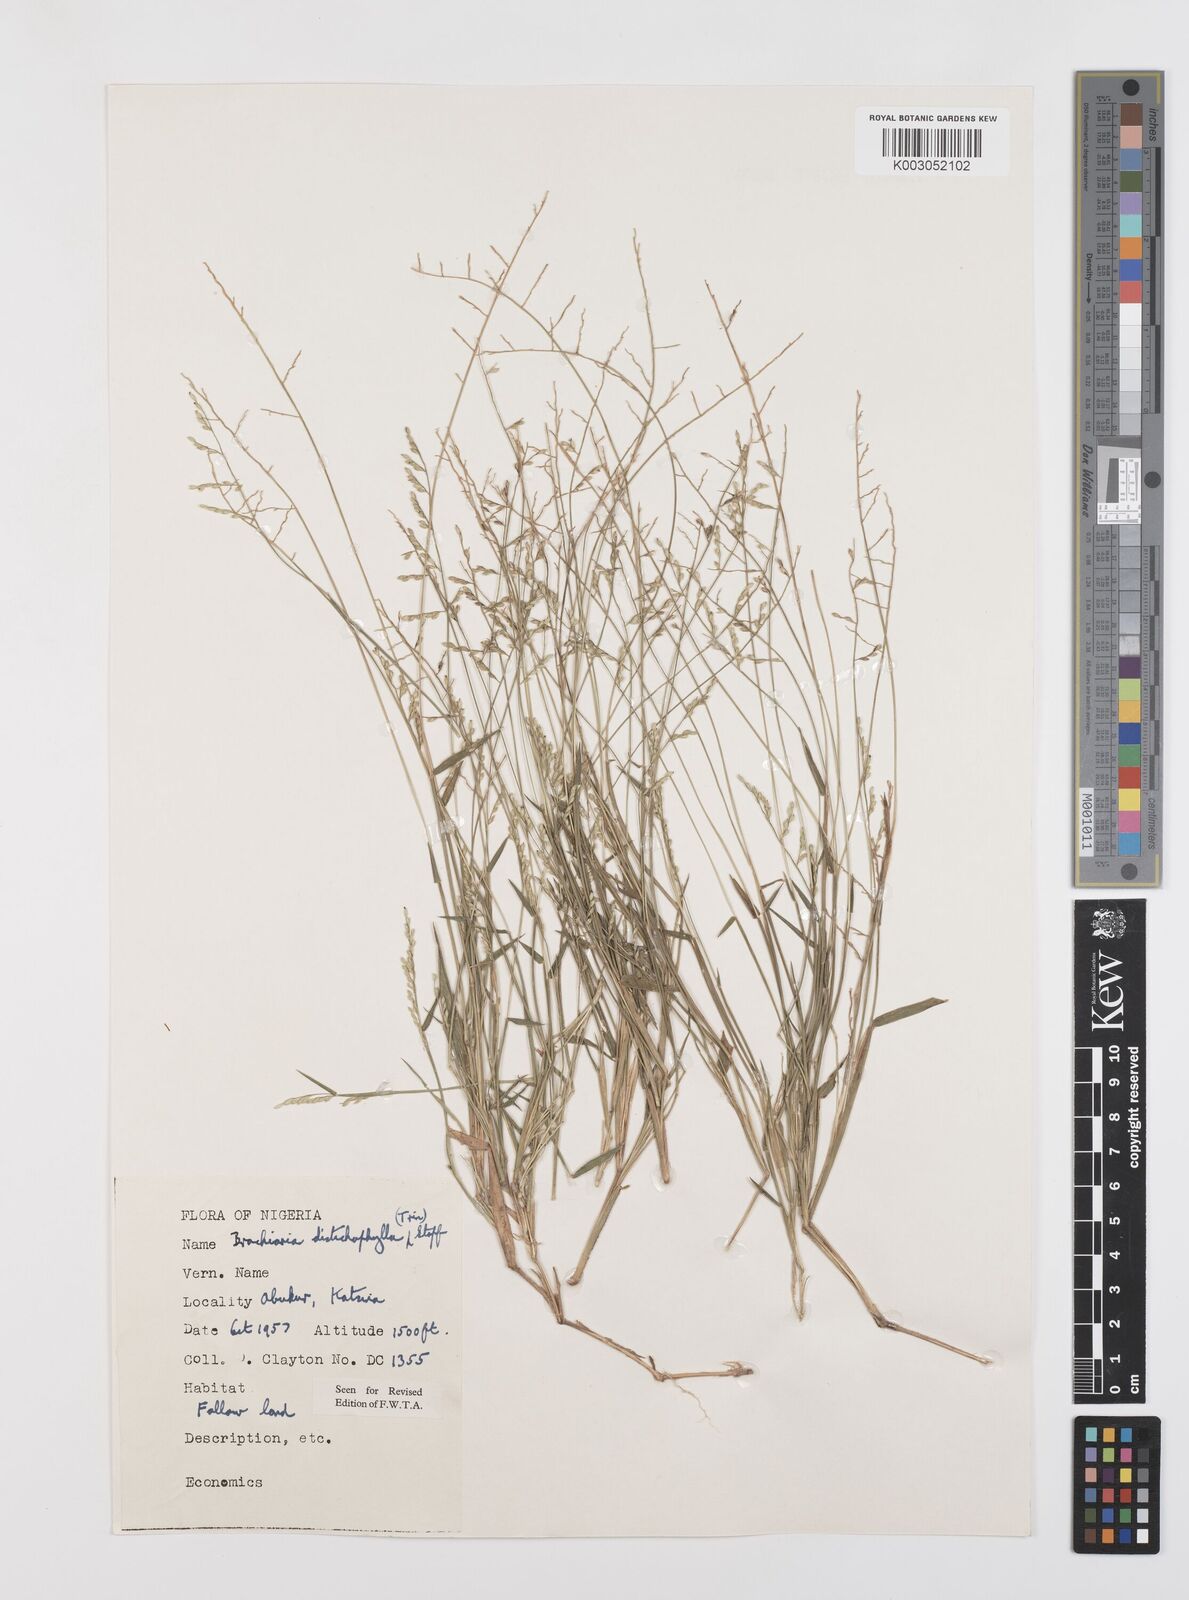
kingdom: Plantae
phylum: Tracheophyta
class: Liliopsida
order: Poales
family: Poaceae
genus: Urochloa
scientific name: Urochloa villosa
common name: Hairy signalgrass
